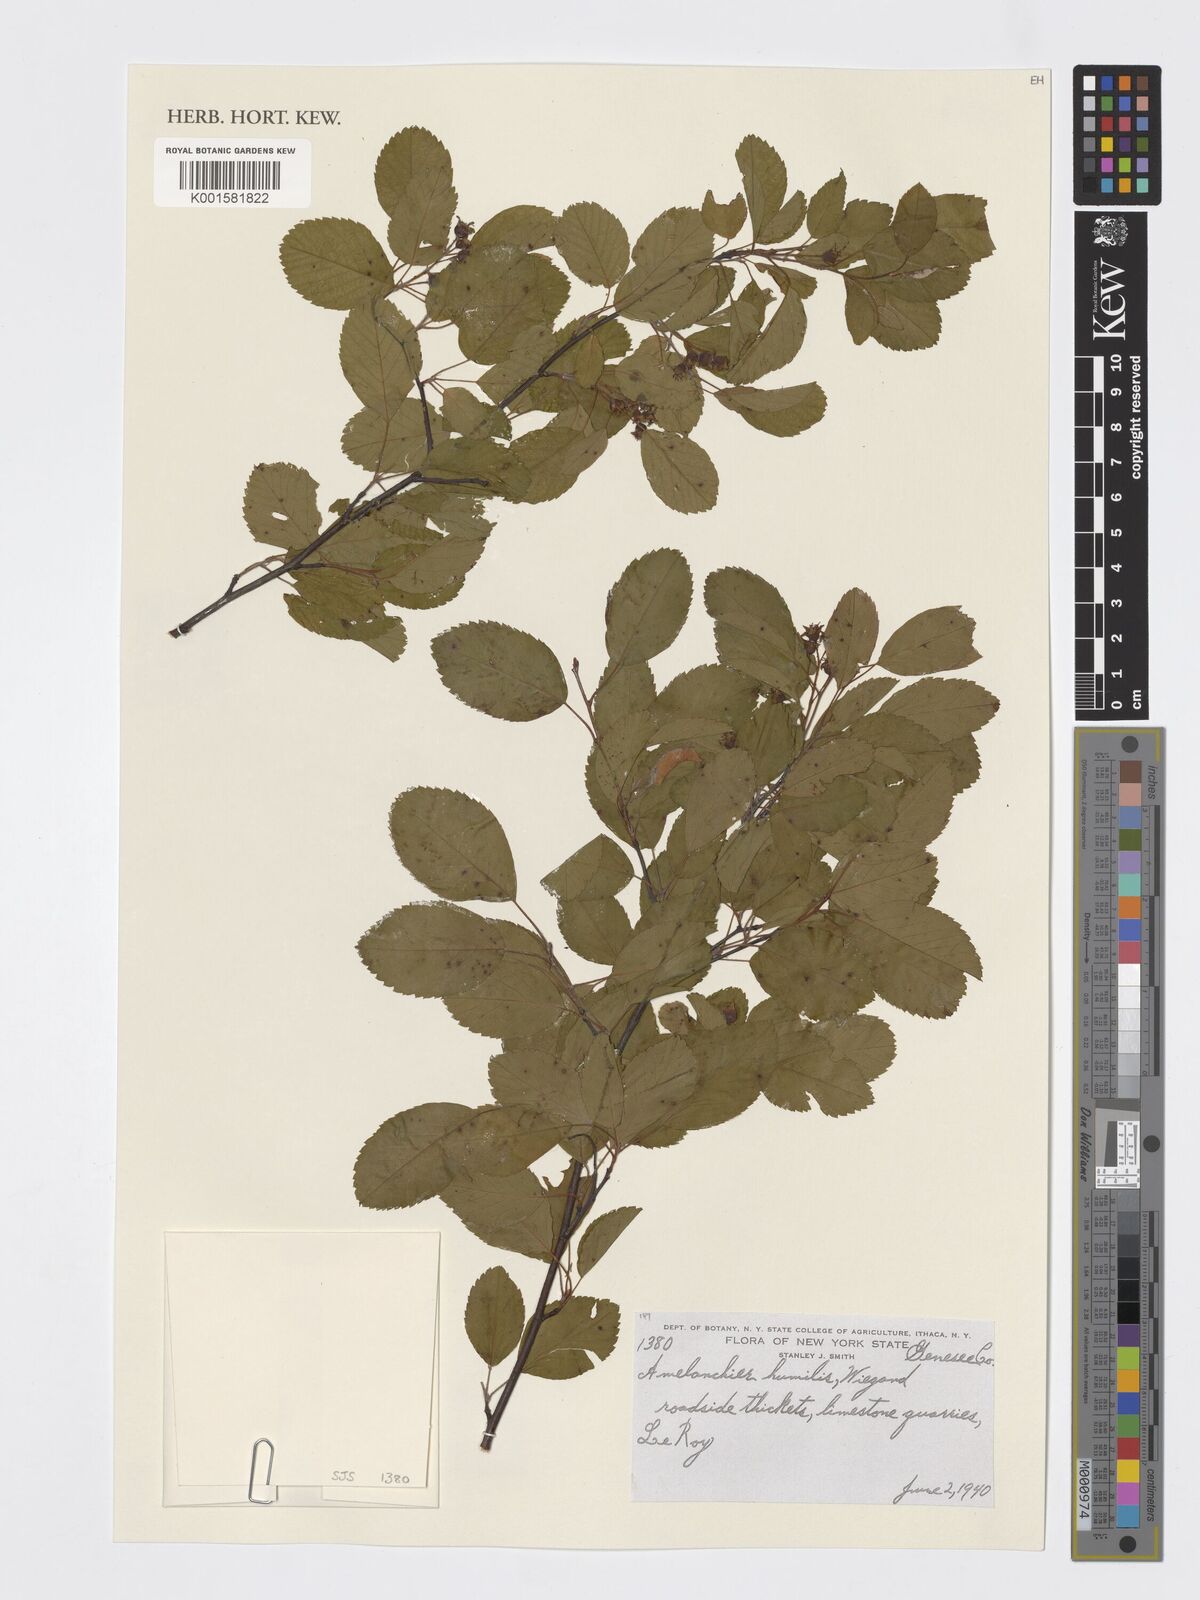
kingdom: Plantae
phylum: Tracheophyta
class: Magnoliopsida
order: Rosales
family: Rosaceae
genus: Amelanchier
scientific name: Amelanchier humilis
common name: Low juneberry
